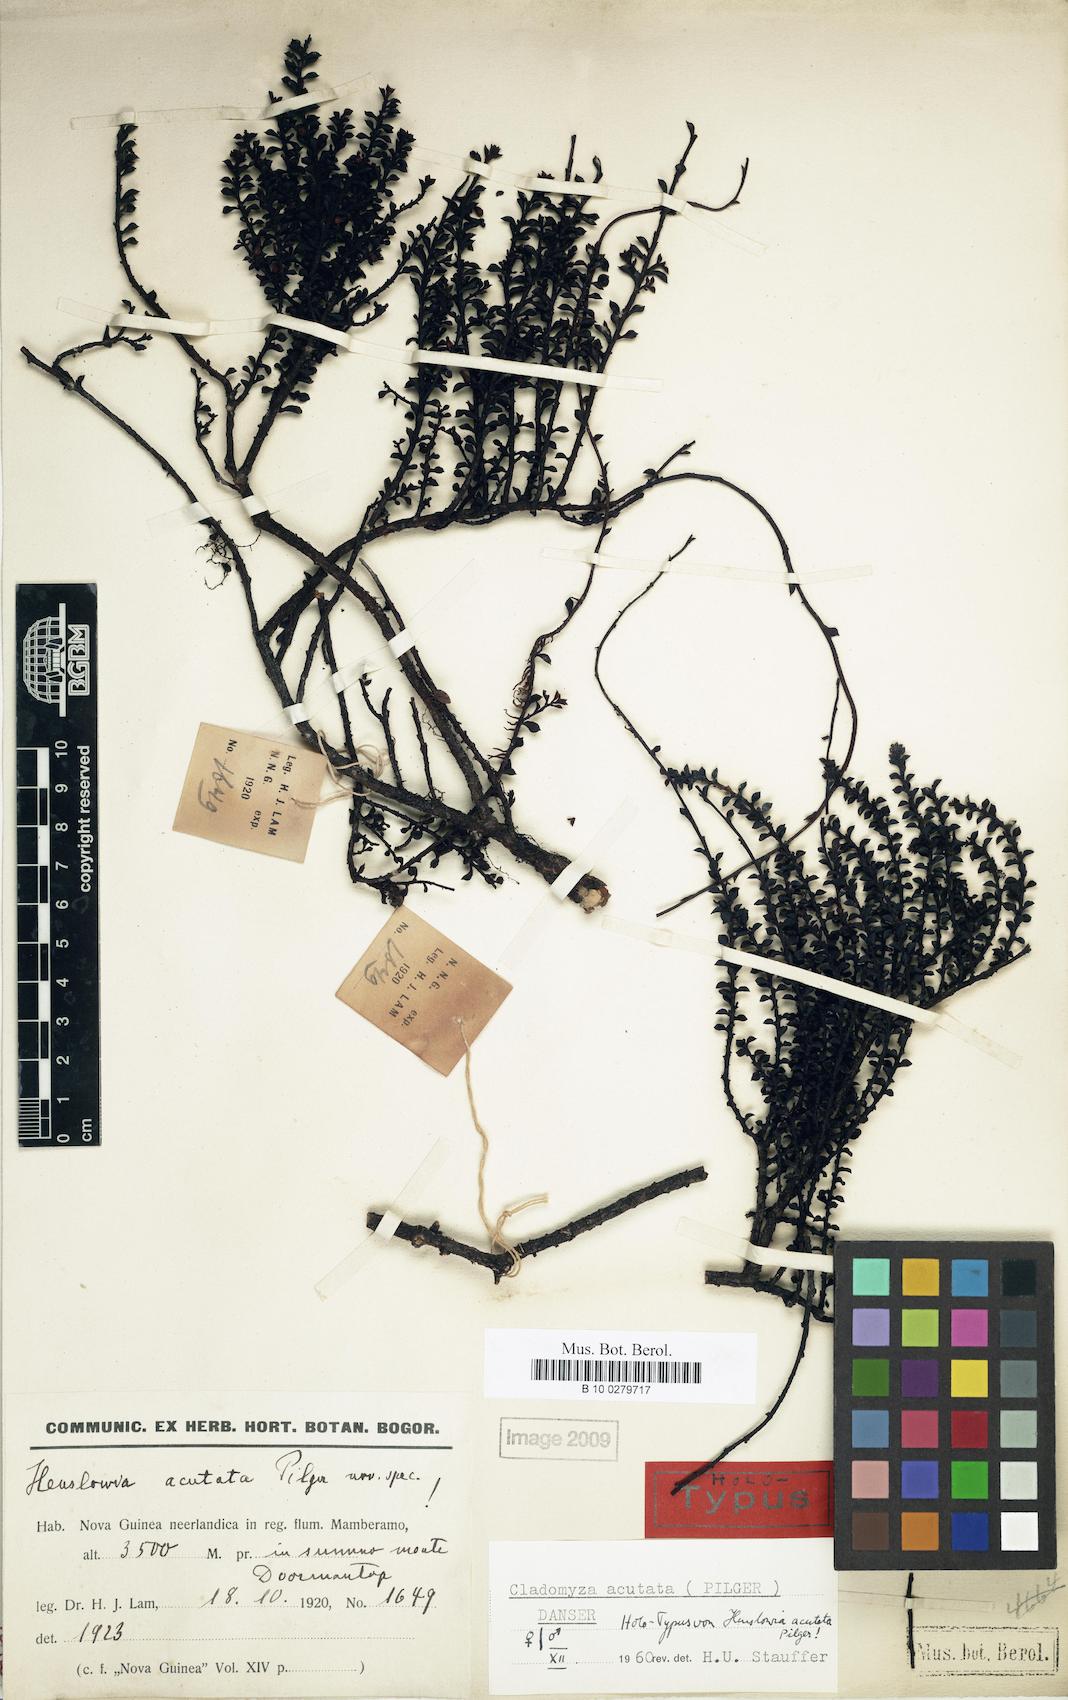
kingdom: Plantae
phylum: Tracheophyta
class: Magnoliopsida
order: Santalales
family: Amphorogynaceae
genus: Cladomyza
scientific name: Cladomyza acutata
